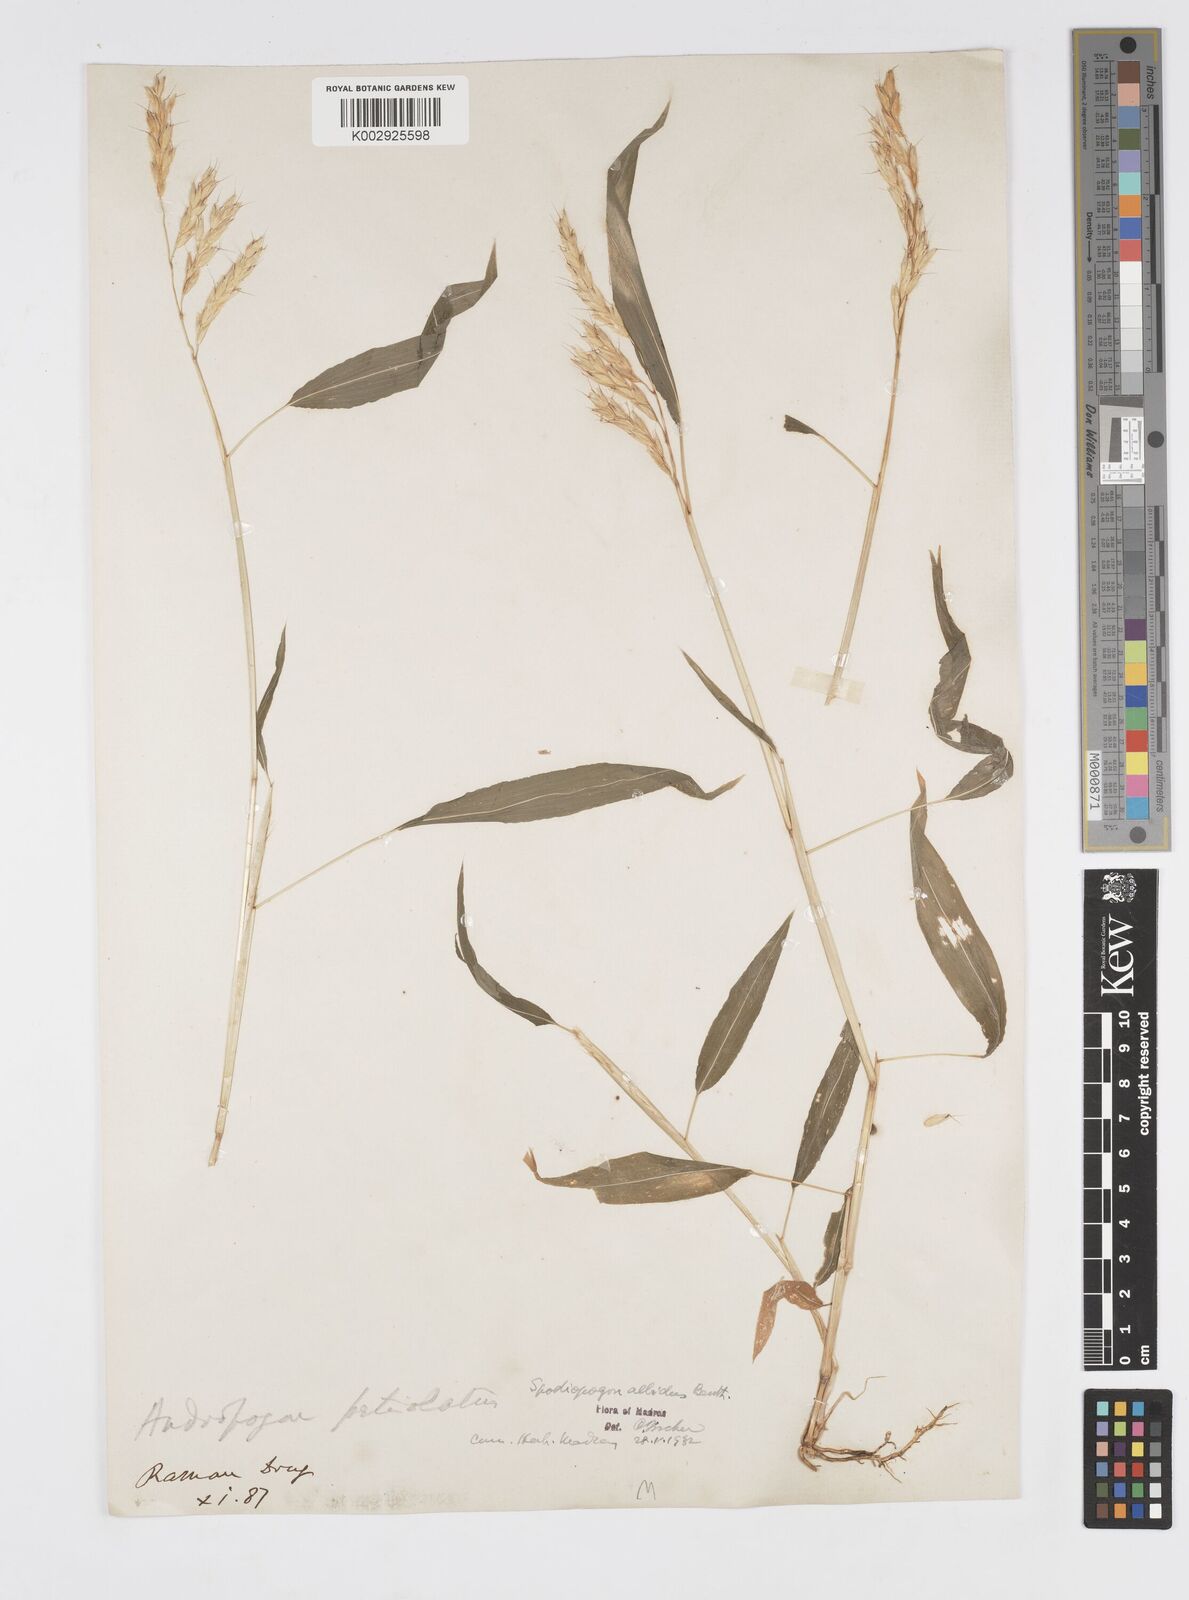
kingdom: Plantae
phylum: Tracheophyta
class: Liliopsida
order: Poales
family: Poaceae
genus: Spodiopogon
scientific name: Spodiopogon rhizophorus
